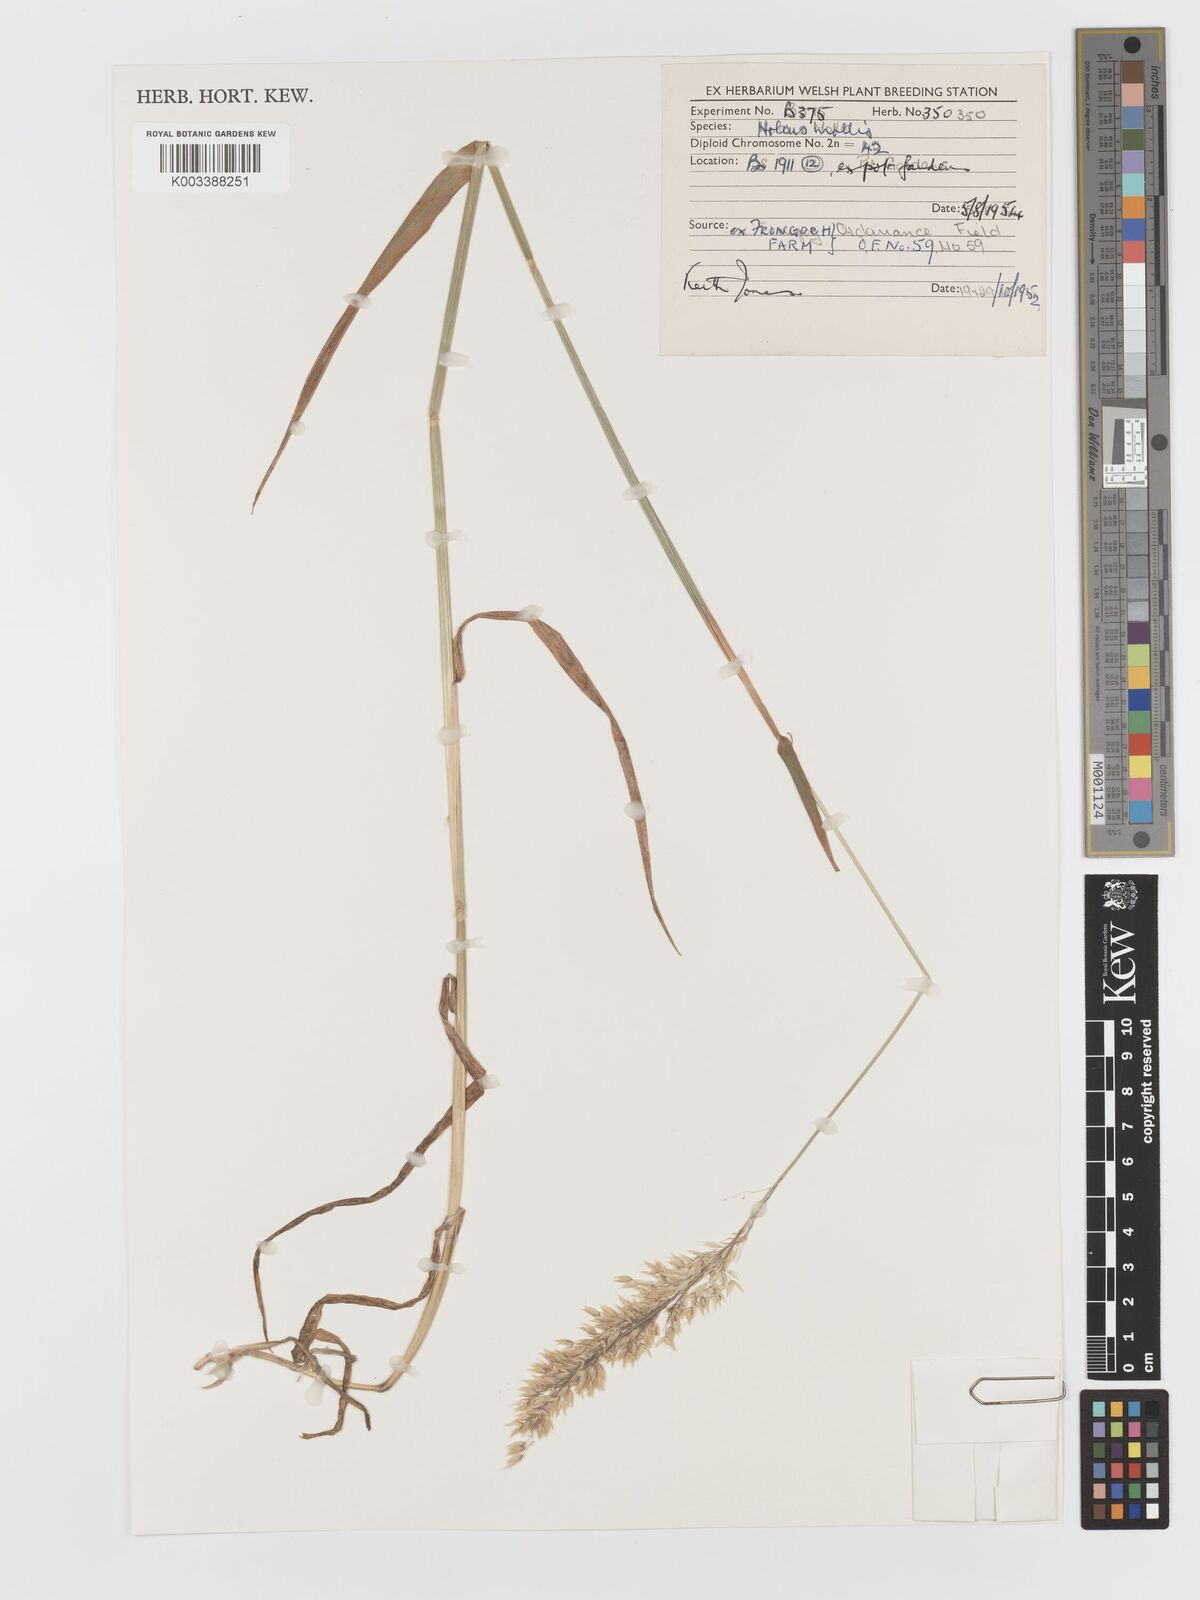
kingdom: Plantae
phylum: Tracheophyta
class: Liliopsida
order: Poales
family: Poaceae
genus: Holcus
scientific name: Holcus mollis
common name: Creeping velvetgrass
